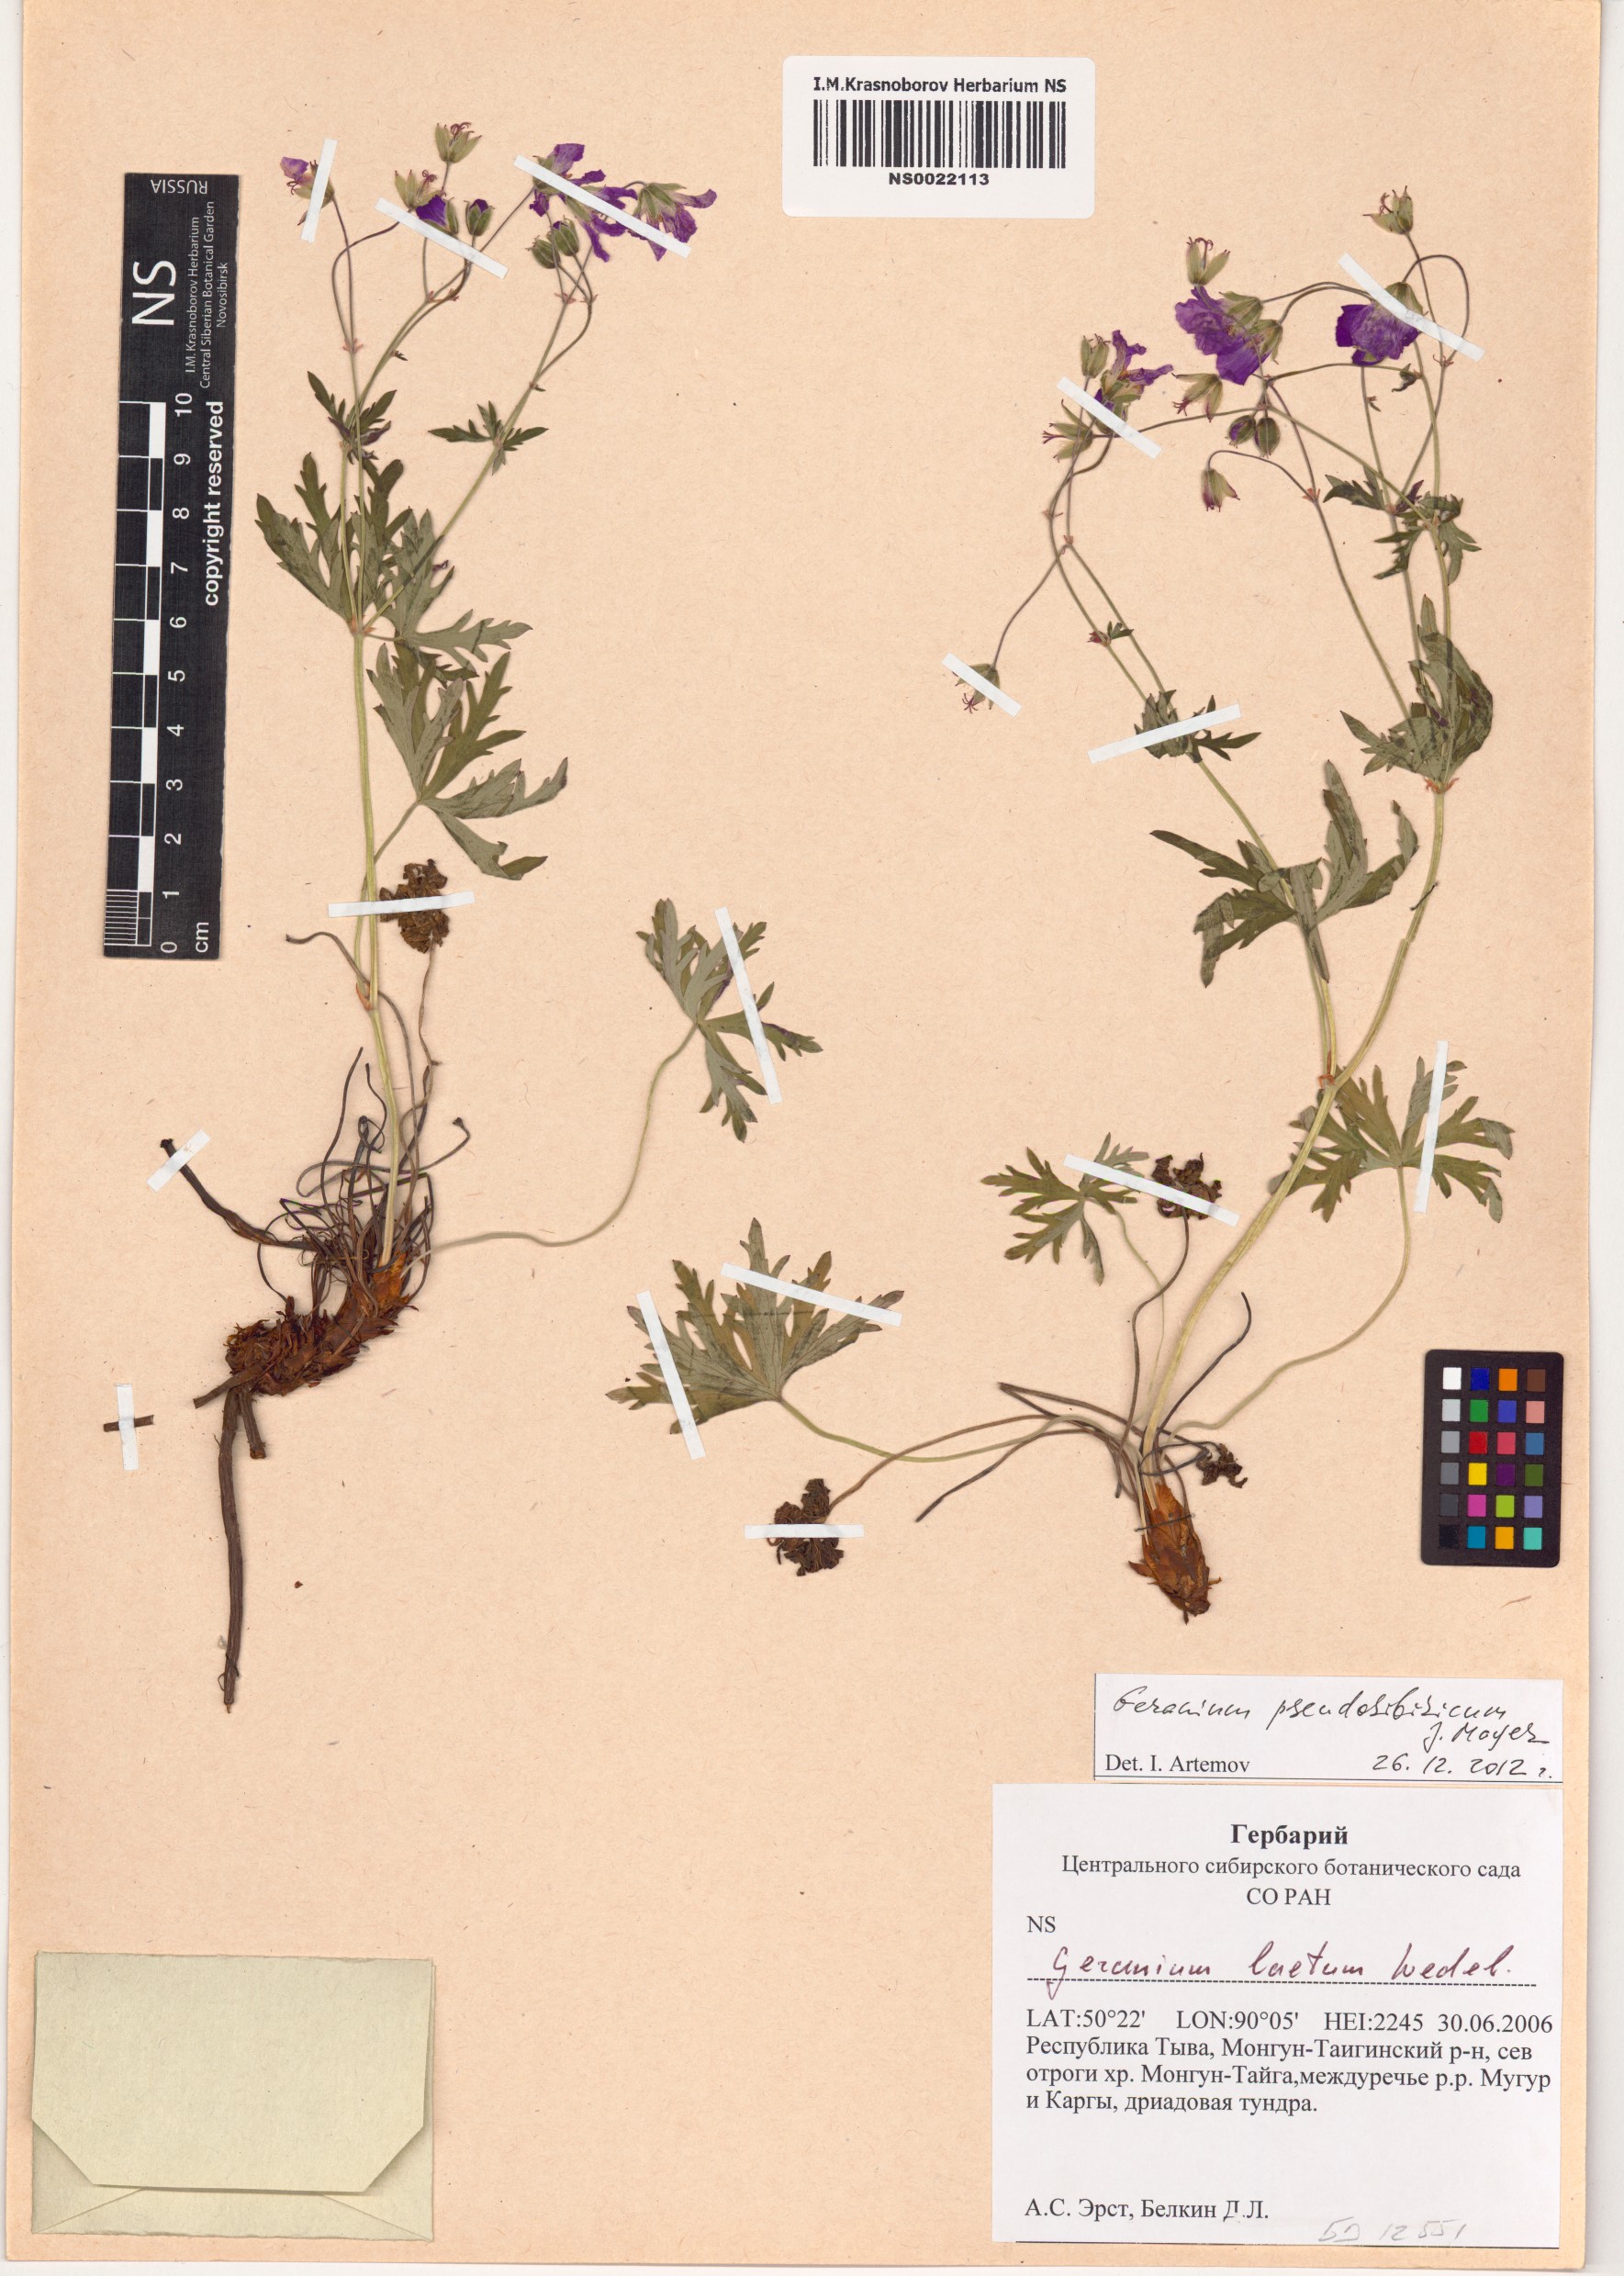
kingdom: Plantae
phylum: Tracheophyta
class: Magnoliopsida
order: Geraniales
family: Geraniaceae
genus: Geranium
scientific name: Geranium pseudosibiricum
